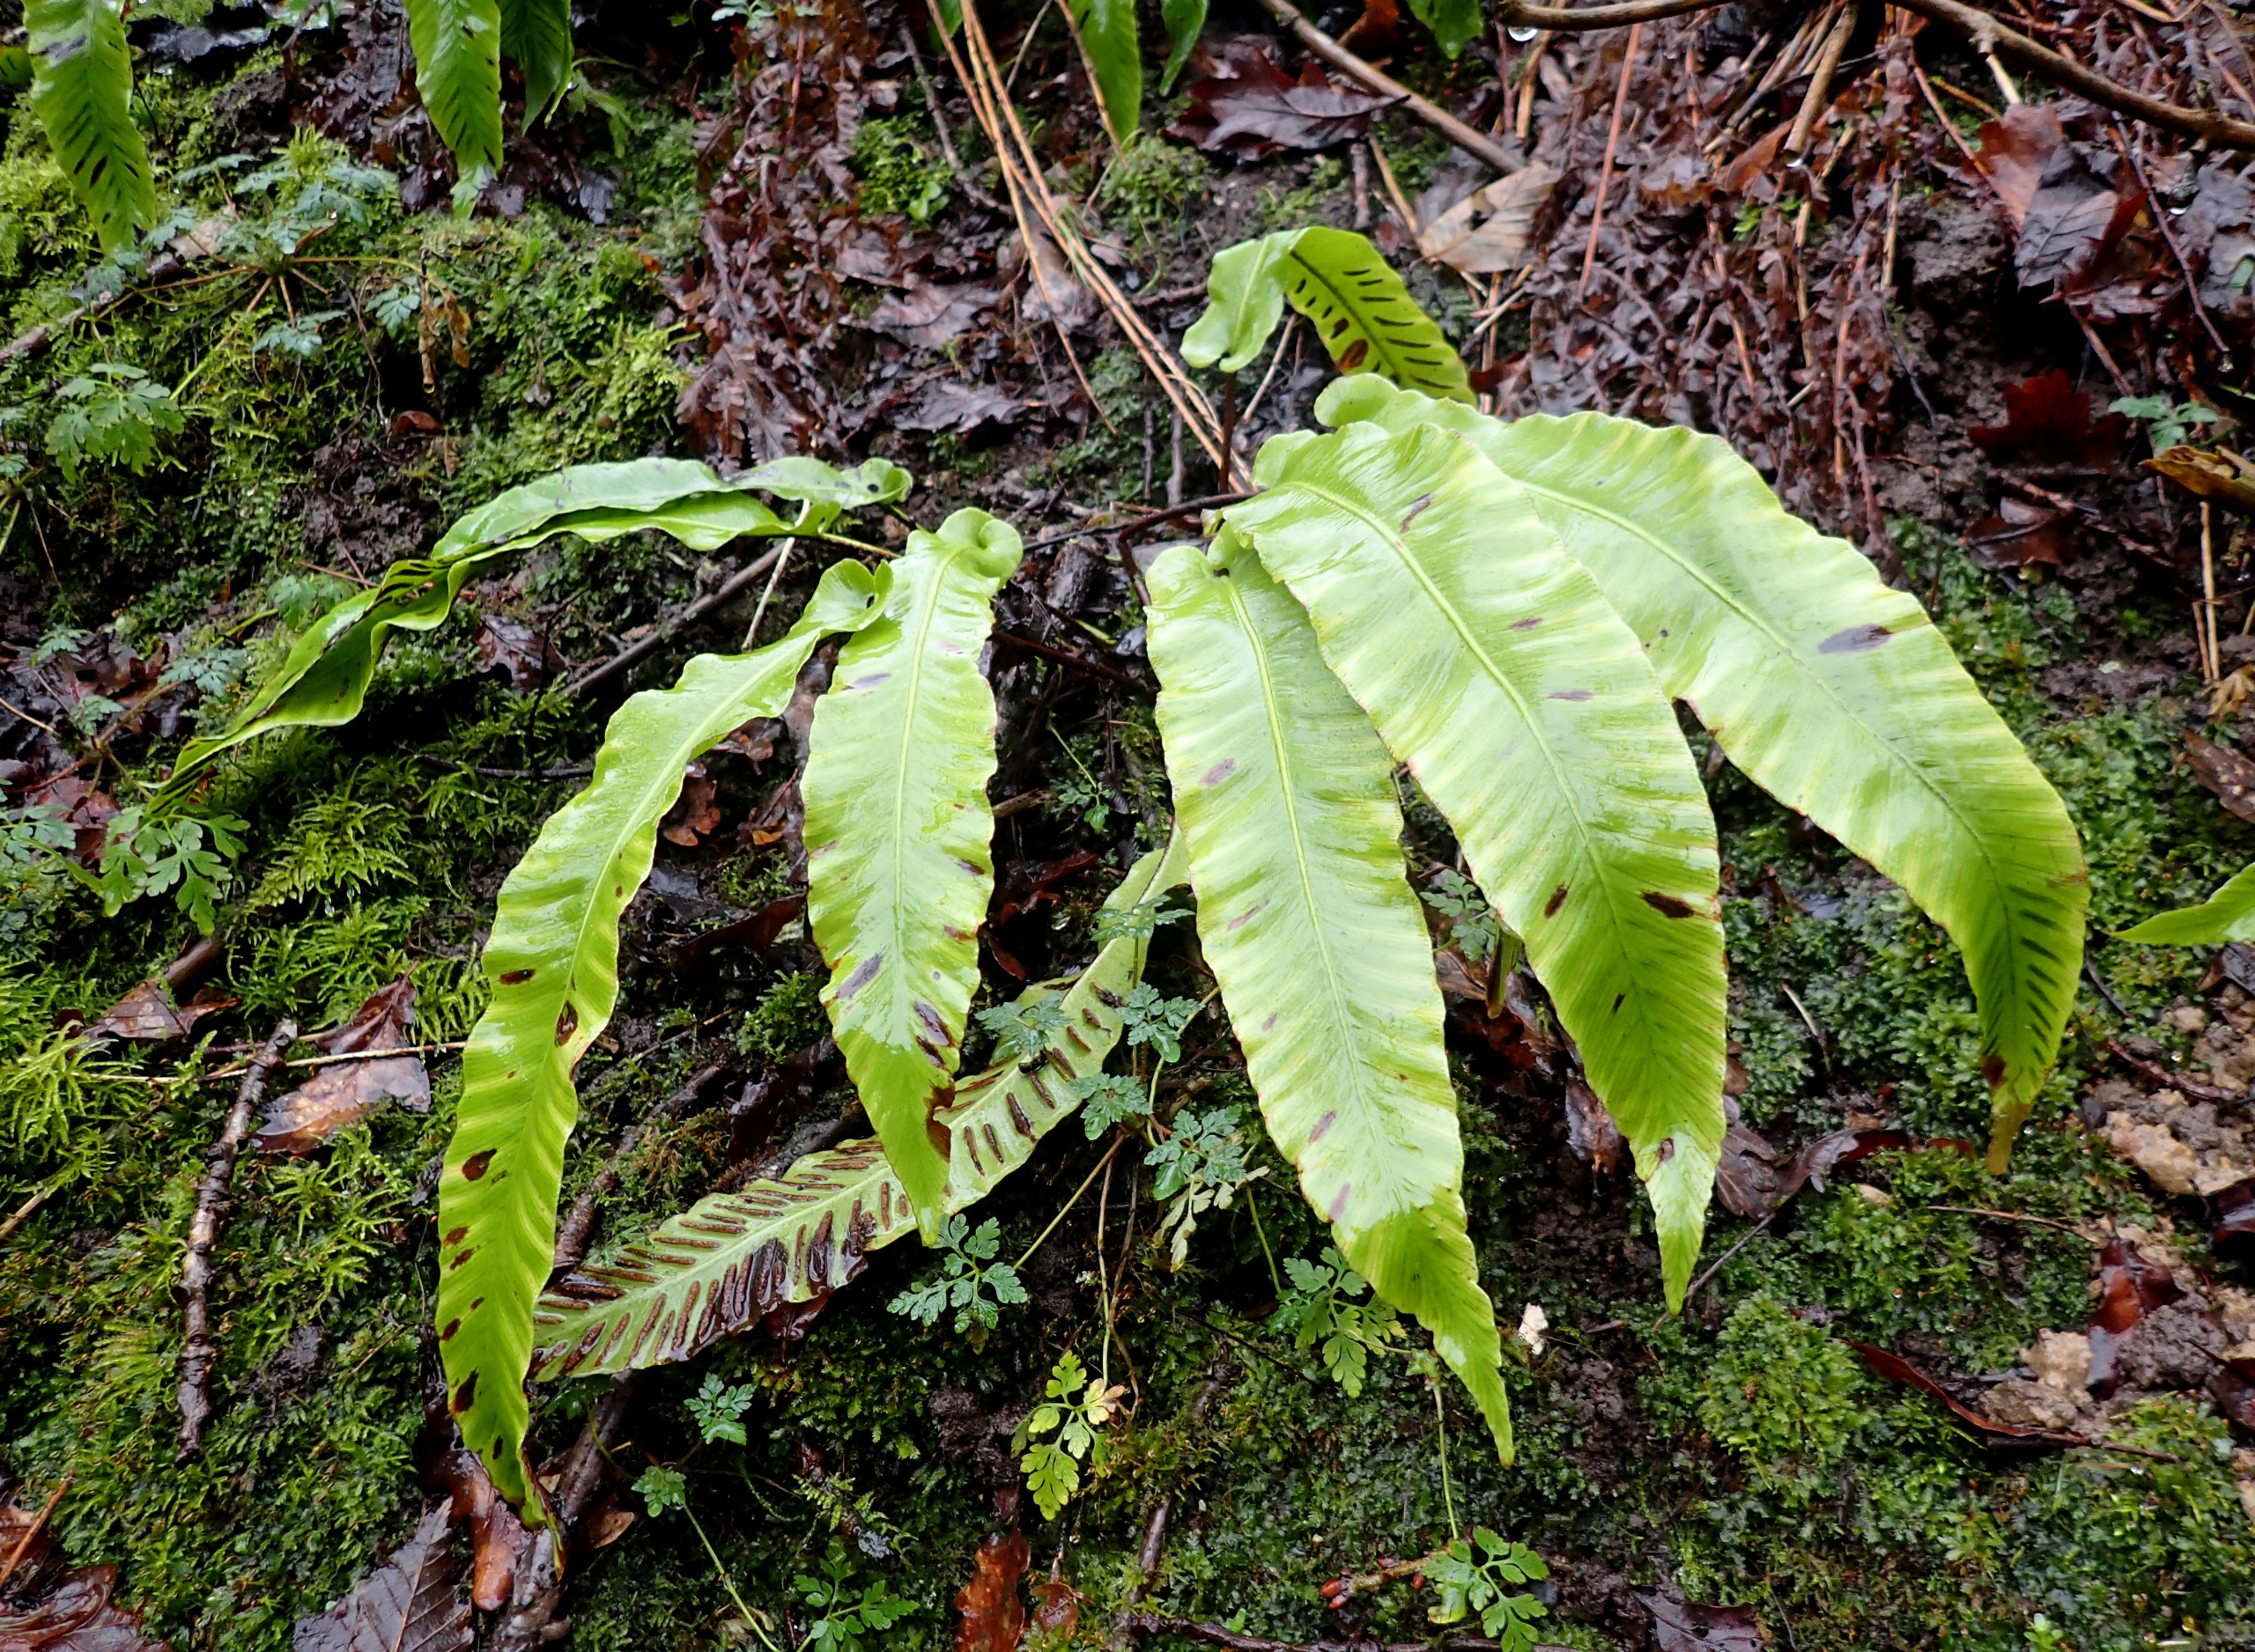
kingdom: Plantae
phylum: Tracheophyta
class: Polypodiopsida
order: Polypodiales
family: Aspleniaceae
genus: Asplenium
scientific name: Asplenium scolopendrium
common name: Hjortetunge
